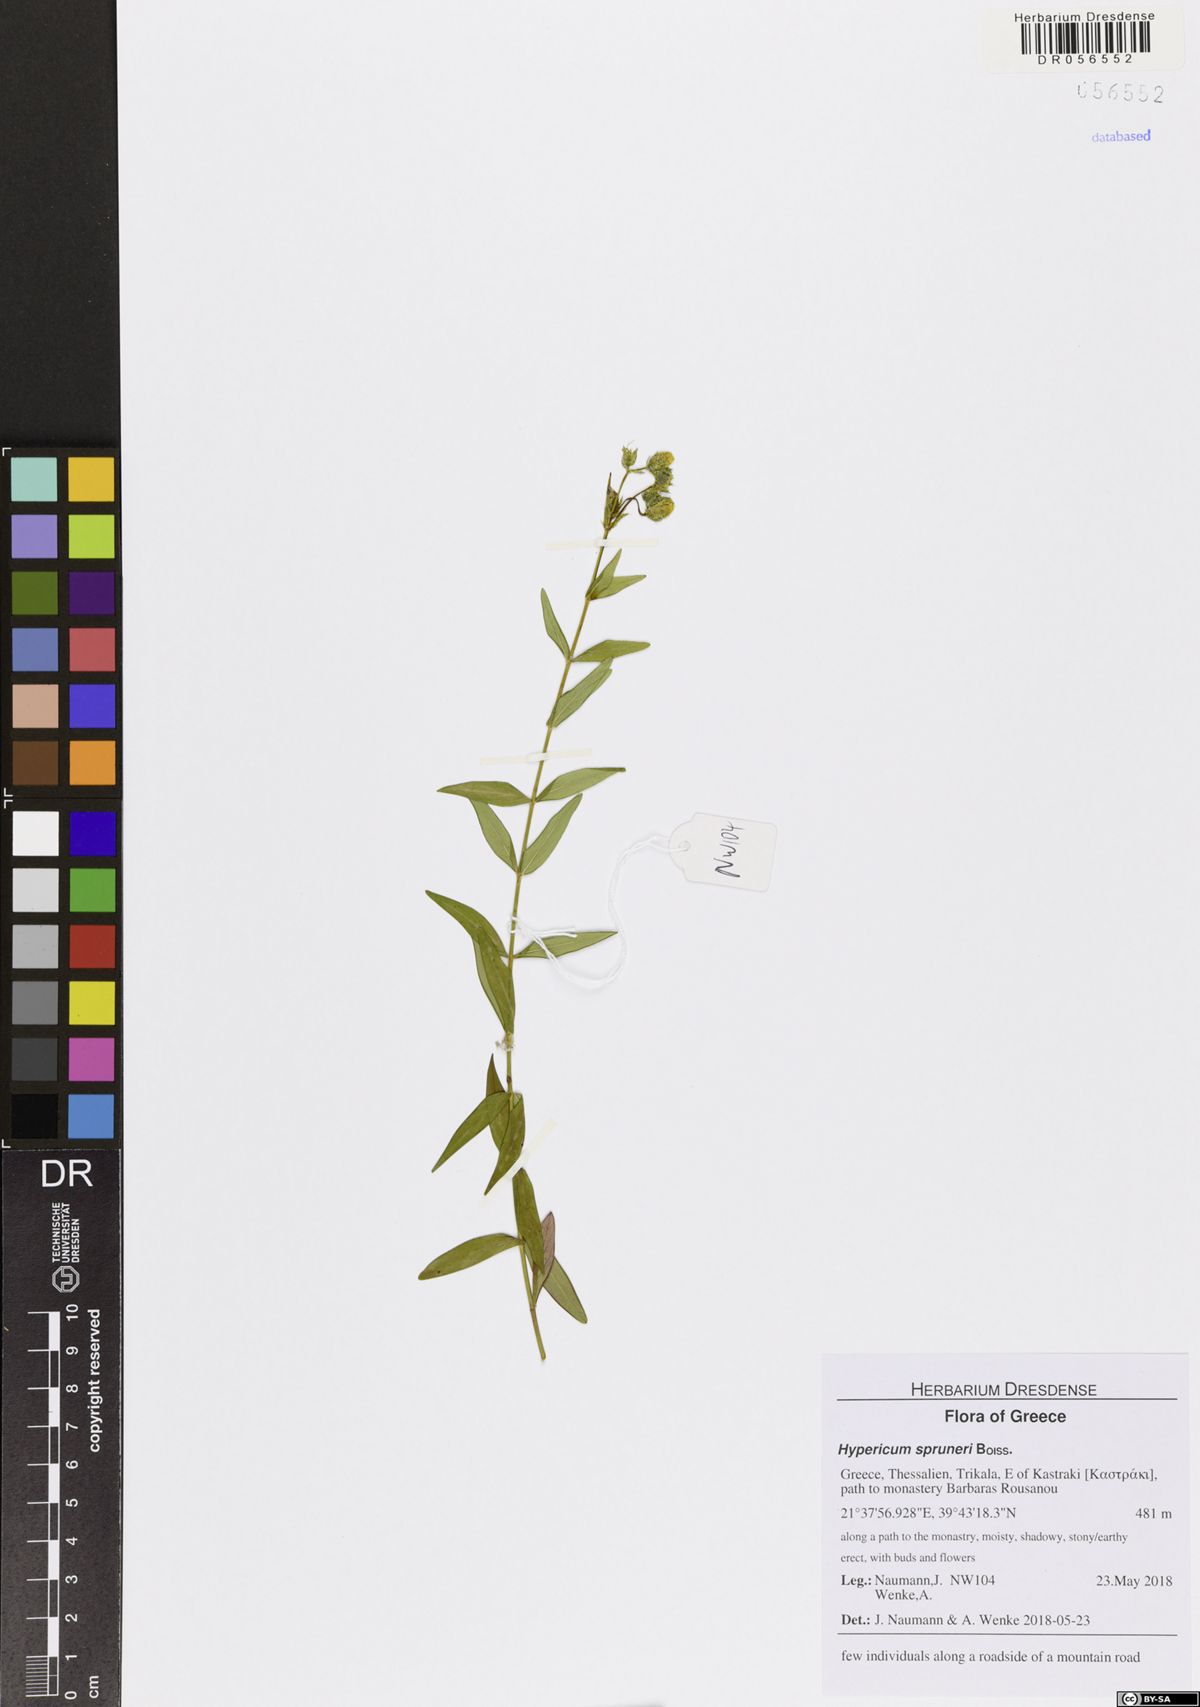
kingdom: Plantae
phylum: Tracheophyta
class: Magnoliopsida
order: Malpighiales
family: Hypericaceae
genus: Hypericum
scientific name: Hypericum spruneri
